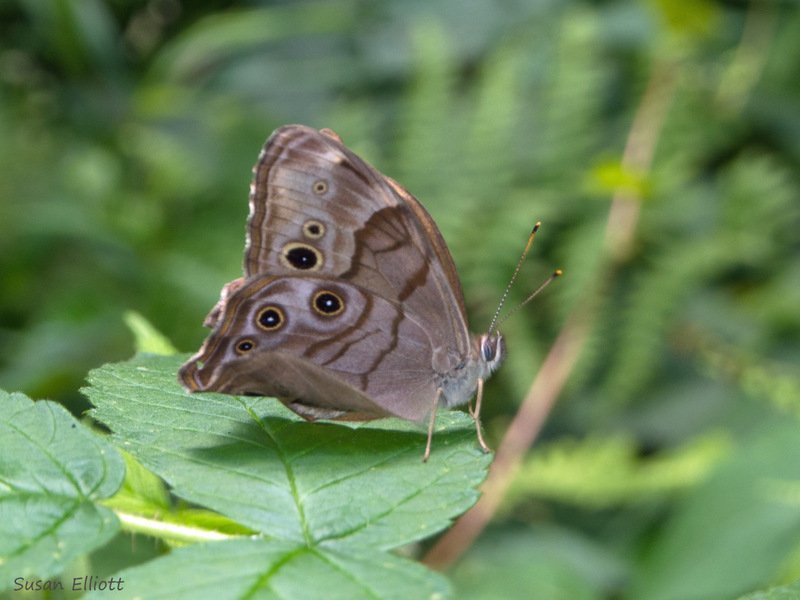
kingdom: Animalia
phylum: Arthropoda
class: Insecta
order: Lepidoptera
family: Nymphalidae
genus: Lethe
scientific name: Lethe anthedon
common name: Northern Pearly-Eye
